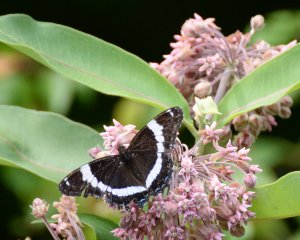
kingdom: Animalia
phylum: Arthropoda
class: Insecta
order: Lepidoptera
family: Nymphalidae
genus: Limenitis
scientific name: Limenitis arthemis
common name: Red-spotted Admiral
